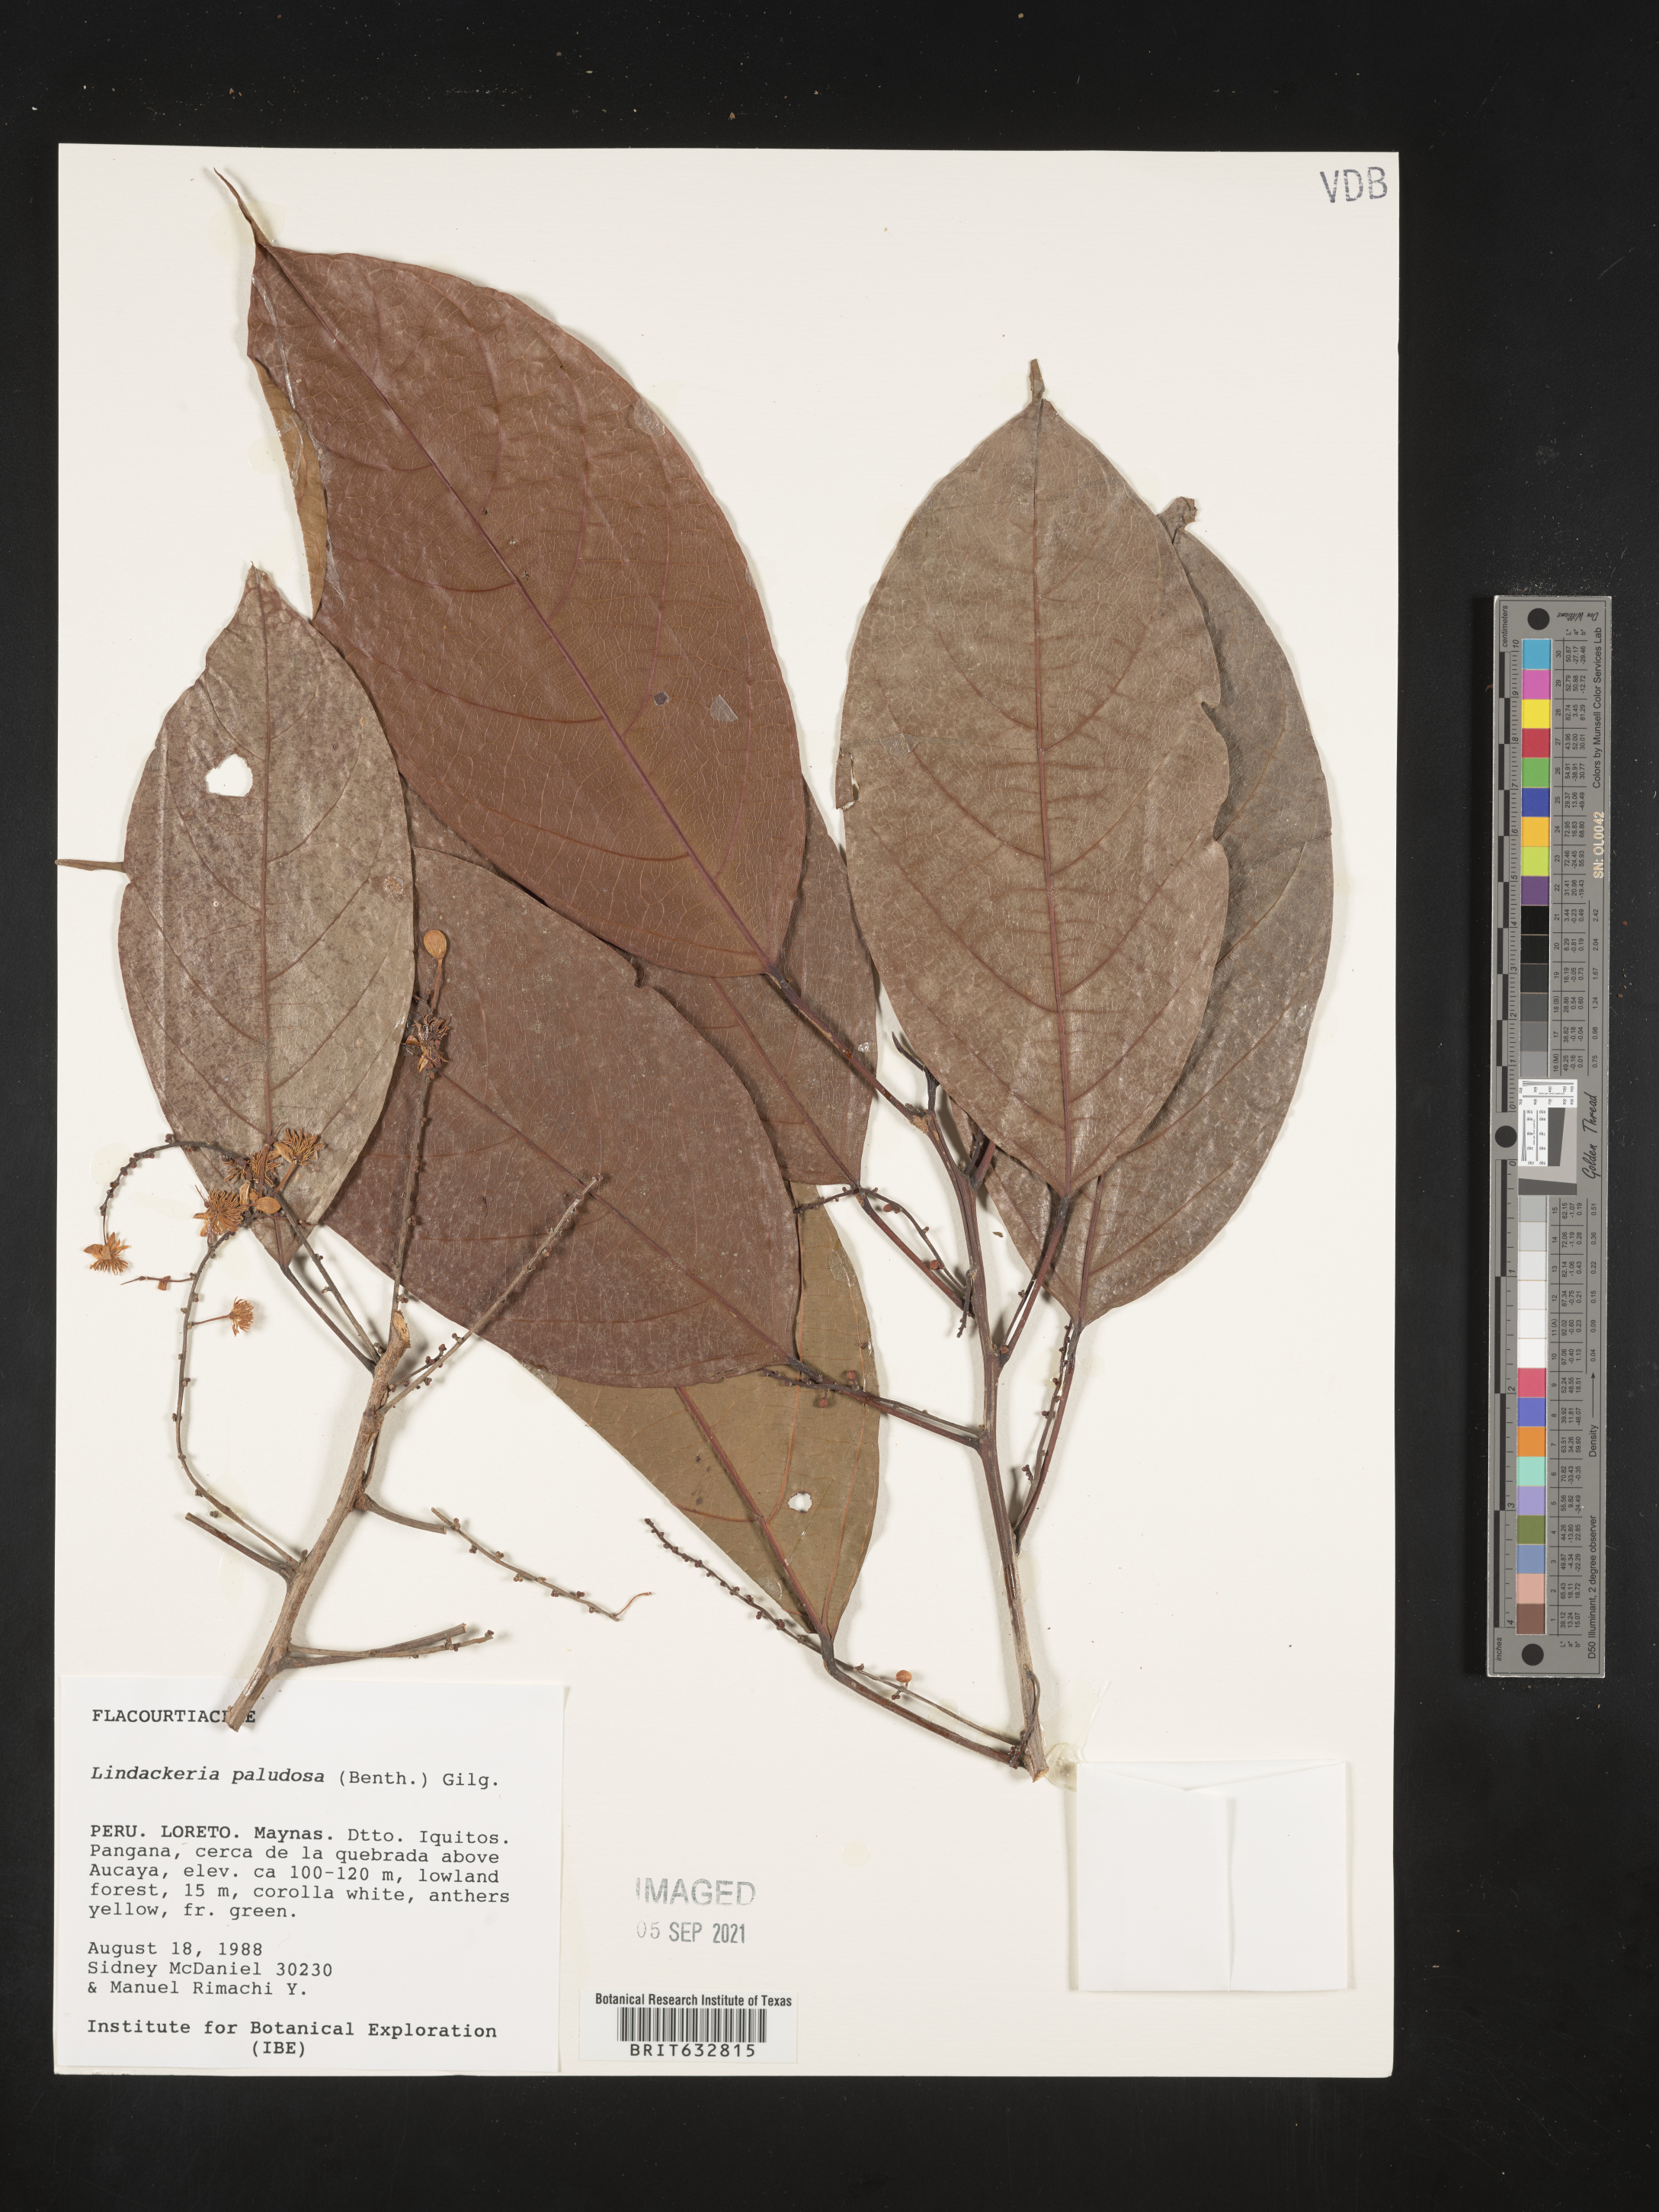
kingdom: Plantae
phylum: Tracheophyta
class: Magnoliopsida
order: Malpighiales
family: Achariaceae
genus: Lindackeria
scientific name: Lindackeria paludosa
